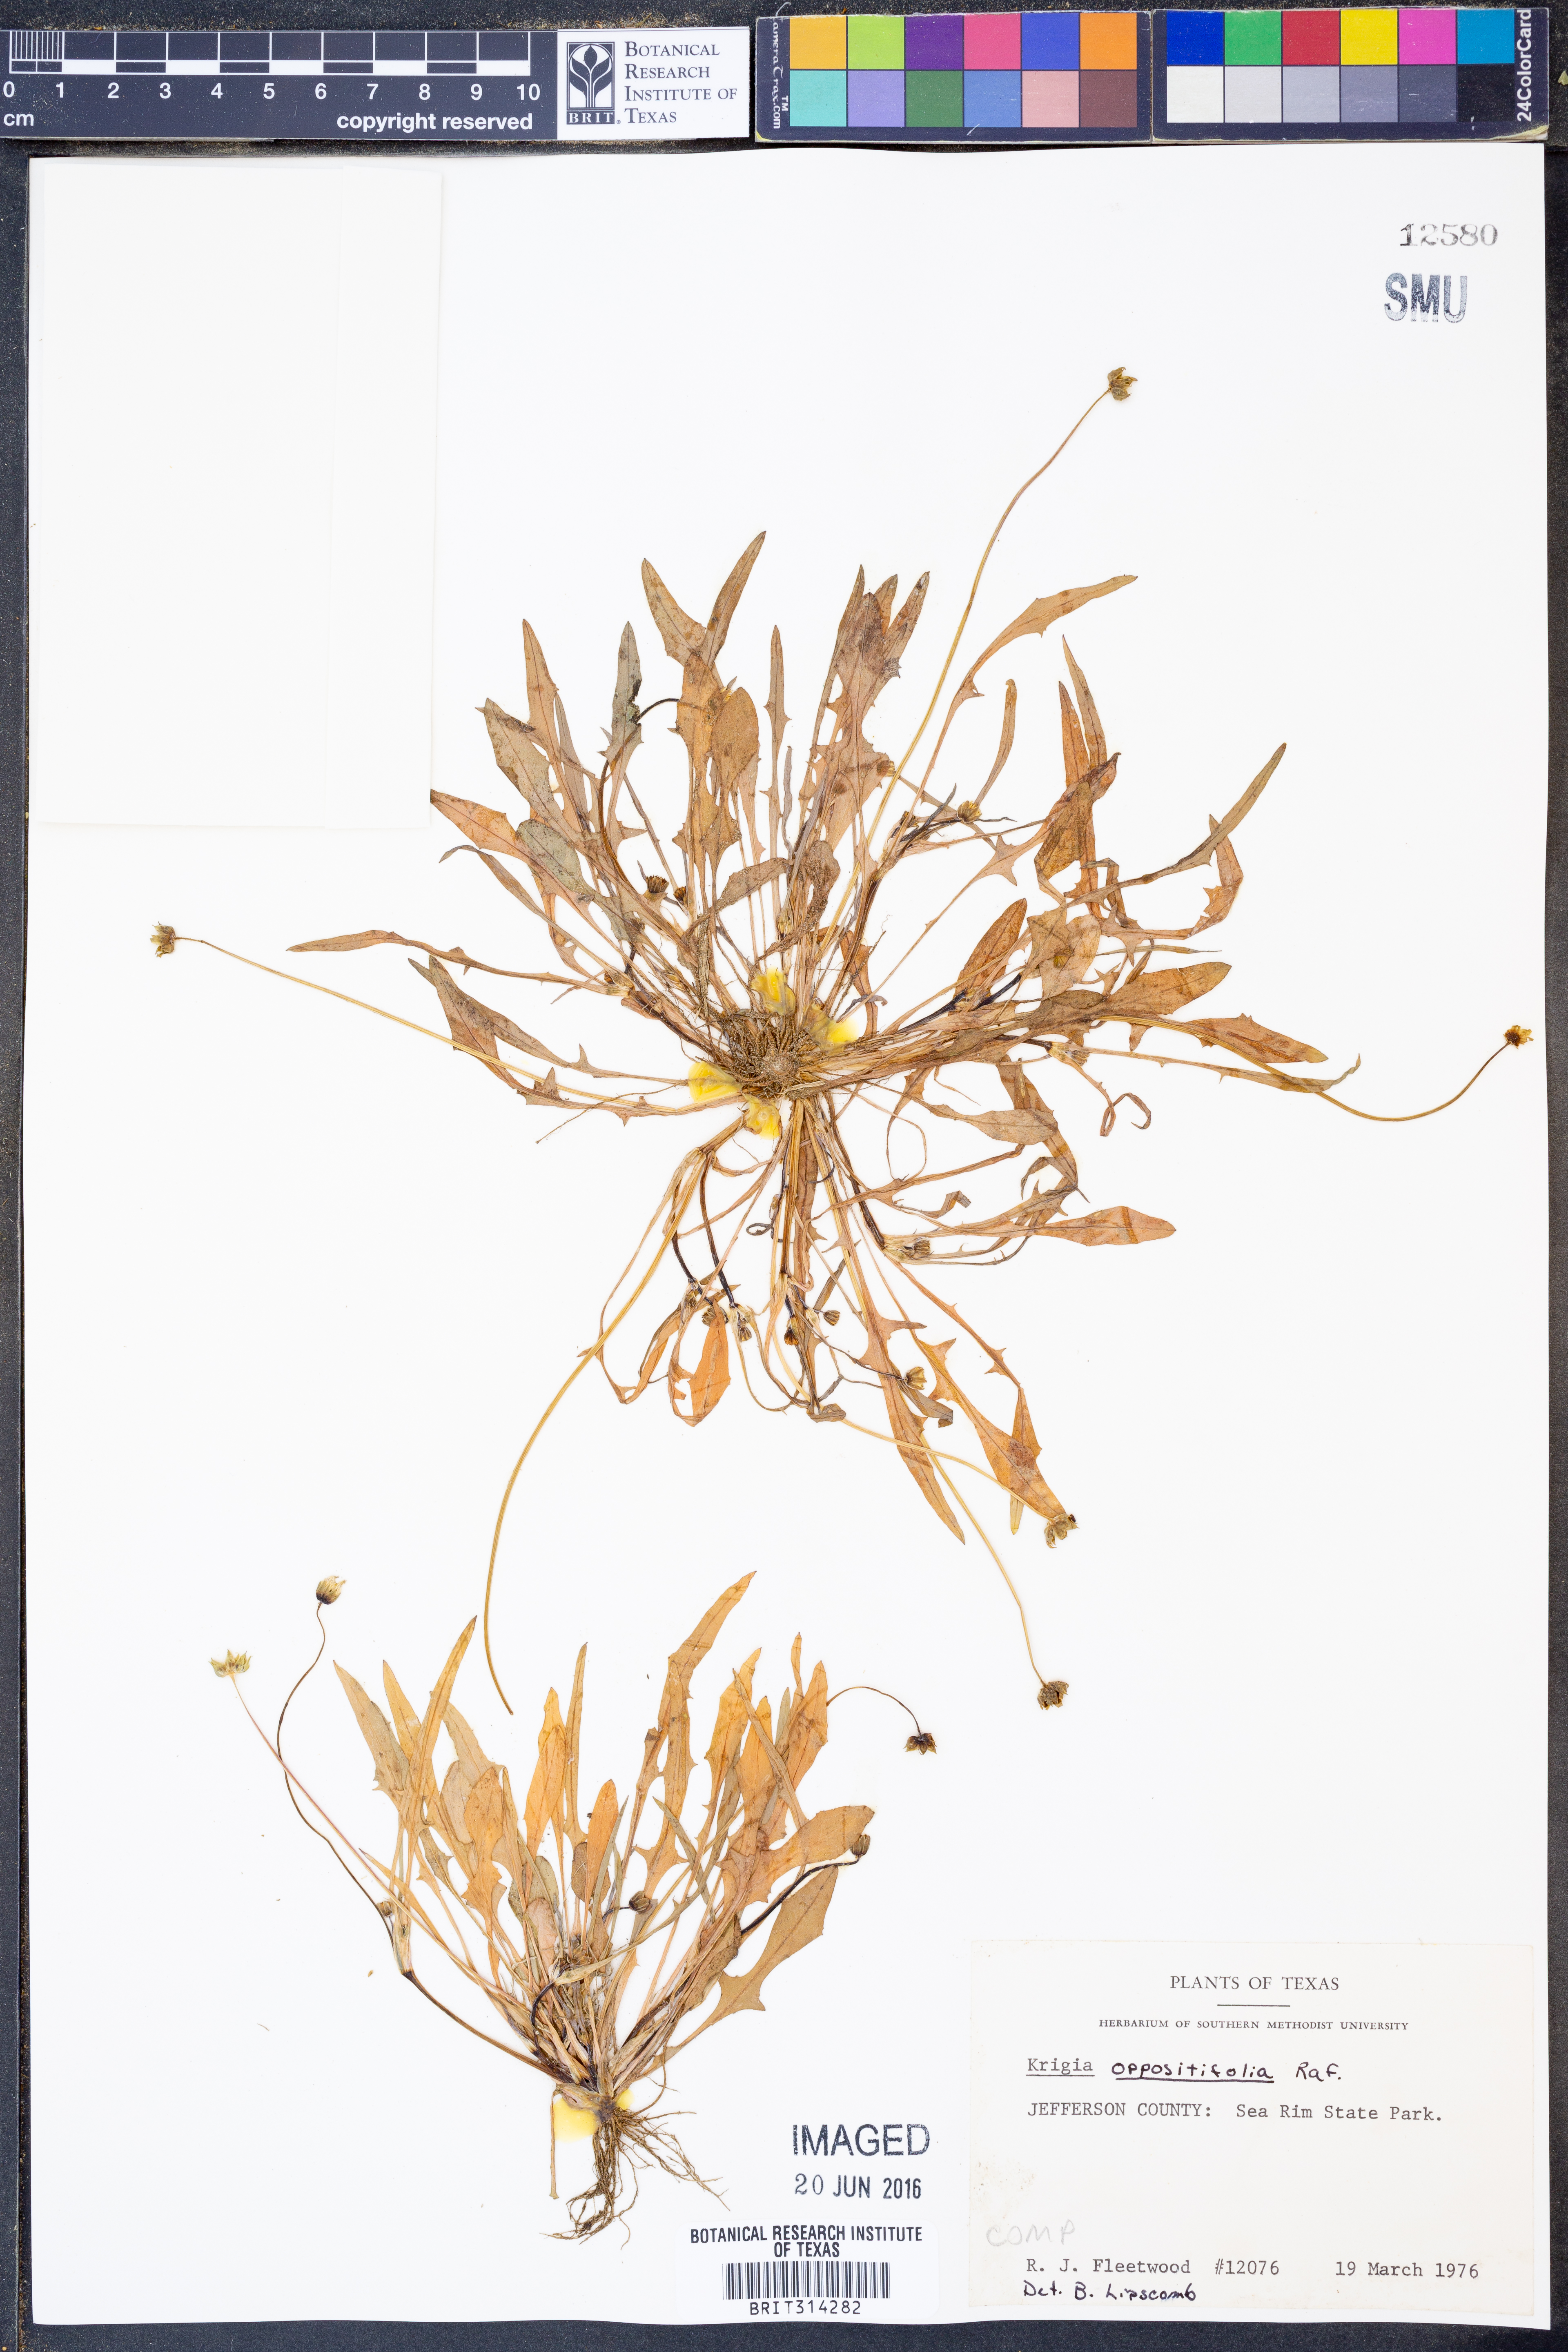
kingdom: Plantae
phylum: Tracheophyta
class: Magnoliopsida
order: Asterales
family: Asteraceae
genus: Krigia
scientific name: Krigia cespitosa
